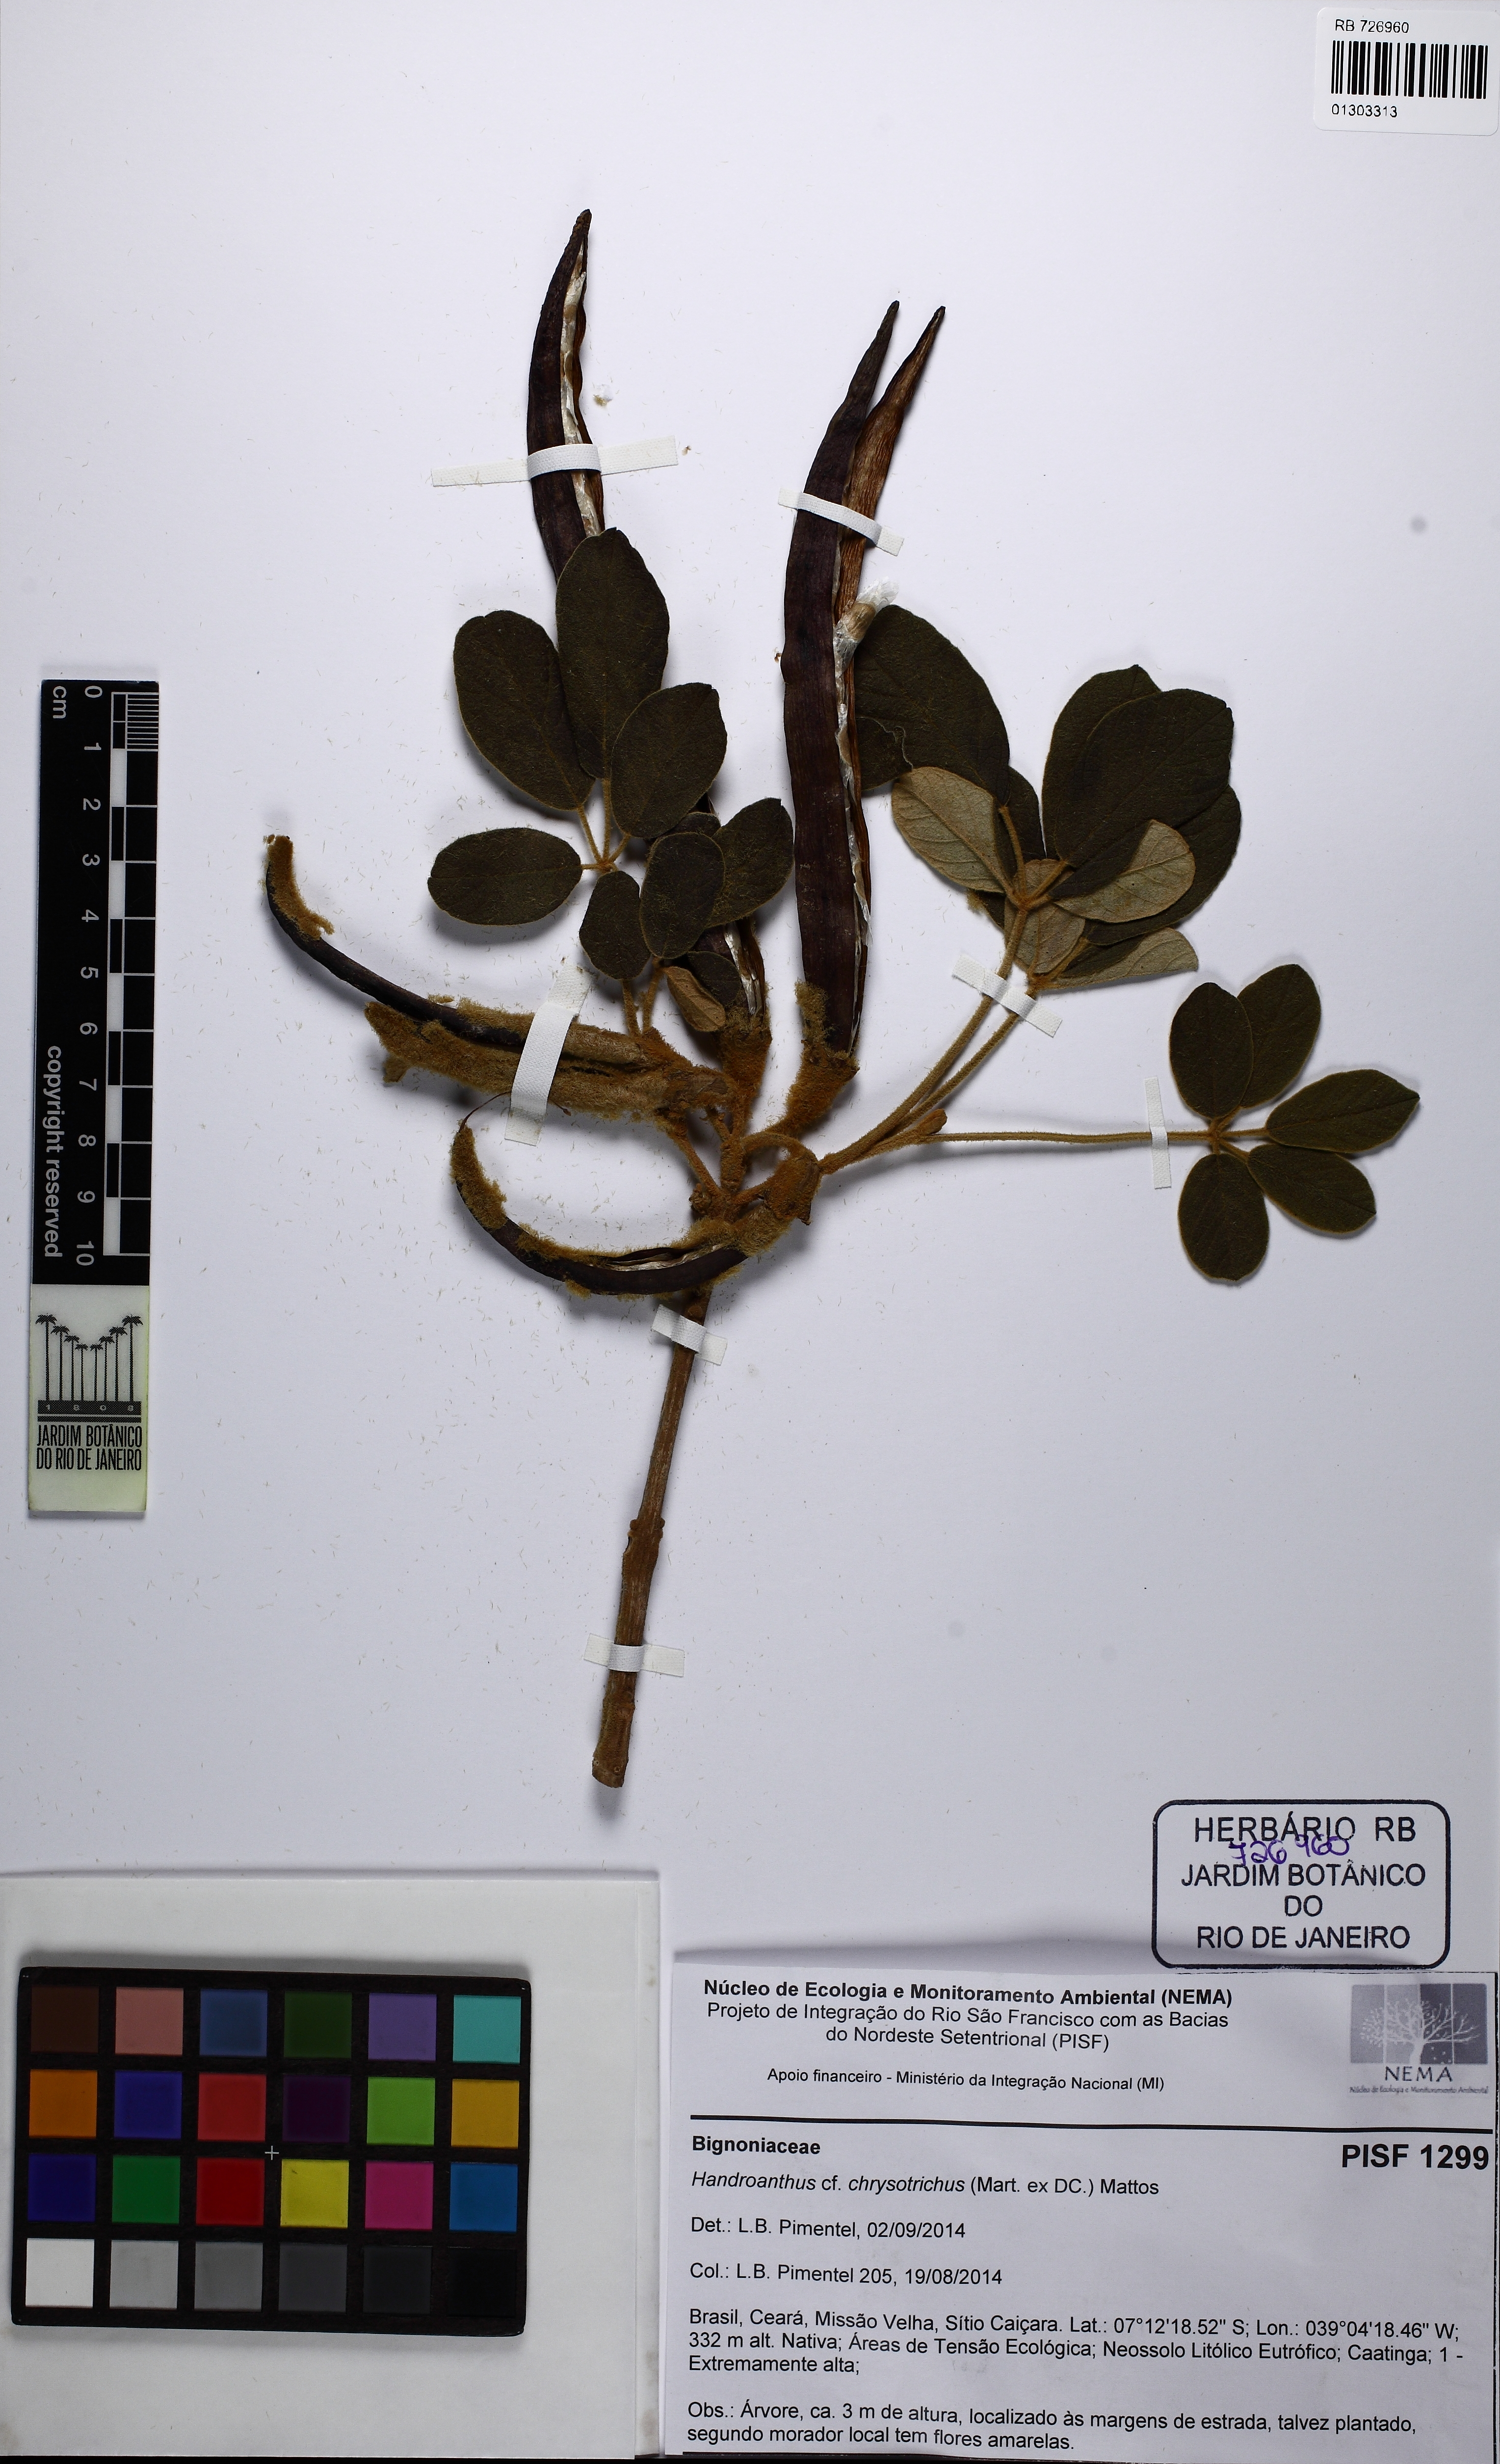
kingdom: Plantae
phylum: Tracheophyta
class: Magnoliopsida
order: Lamiales
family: Bignoniaceae
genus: Handroanthus
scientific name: Handroanthus chrysotrichus
